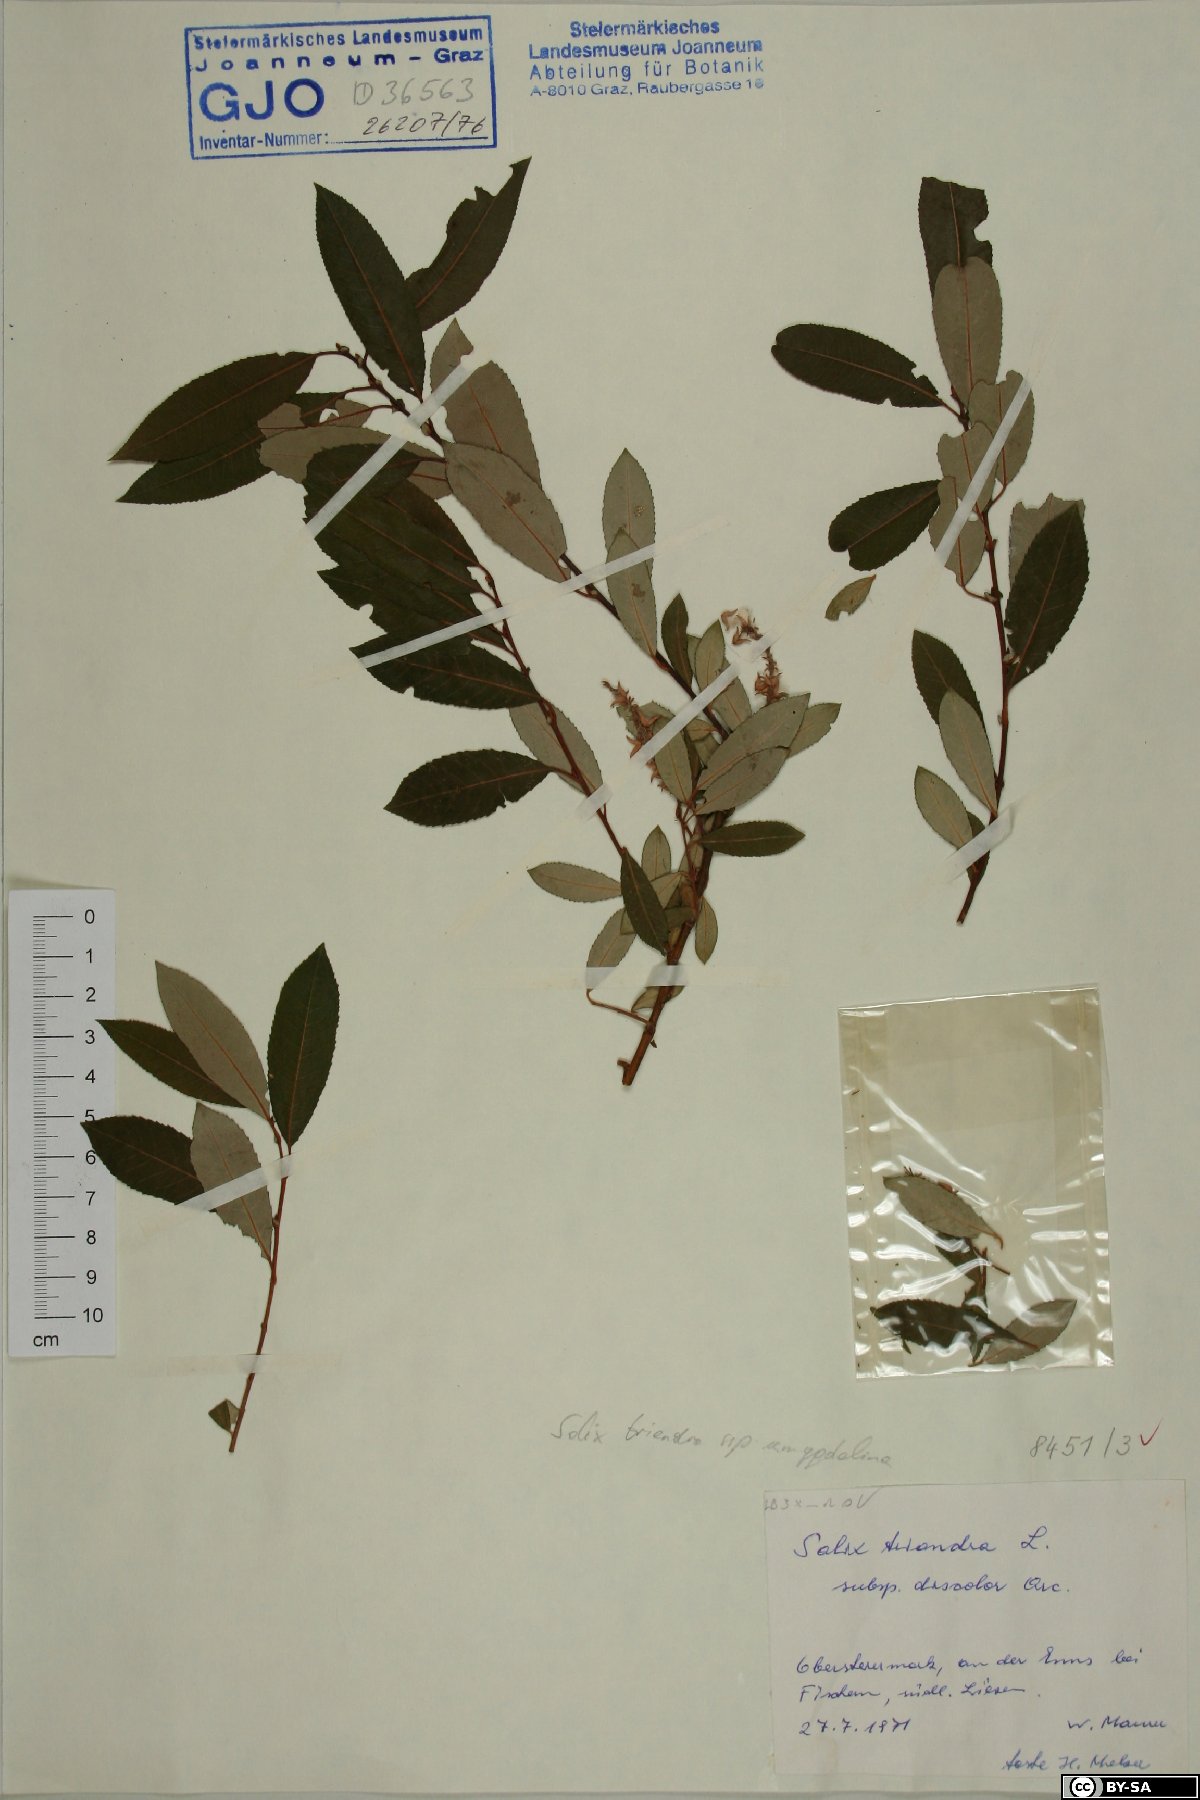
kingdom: Plantae
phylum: Tracheophyta
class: Magnoliopsida
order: Malpighiales
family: Salicaceae
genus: Salix
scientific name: Salix triandra
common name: Almond willow
